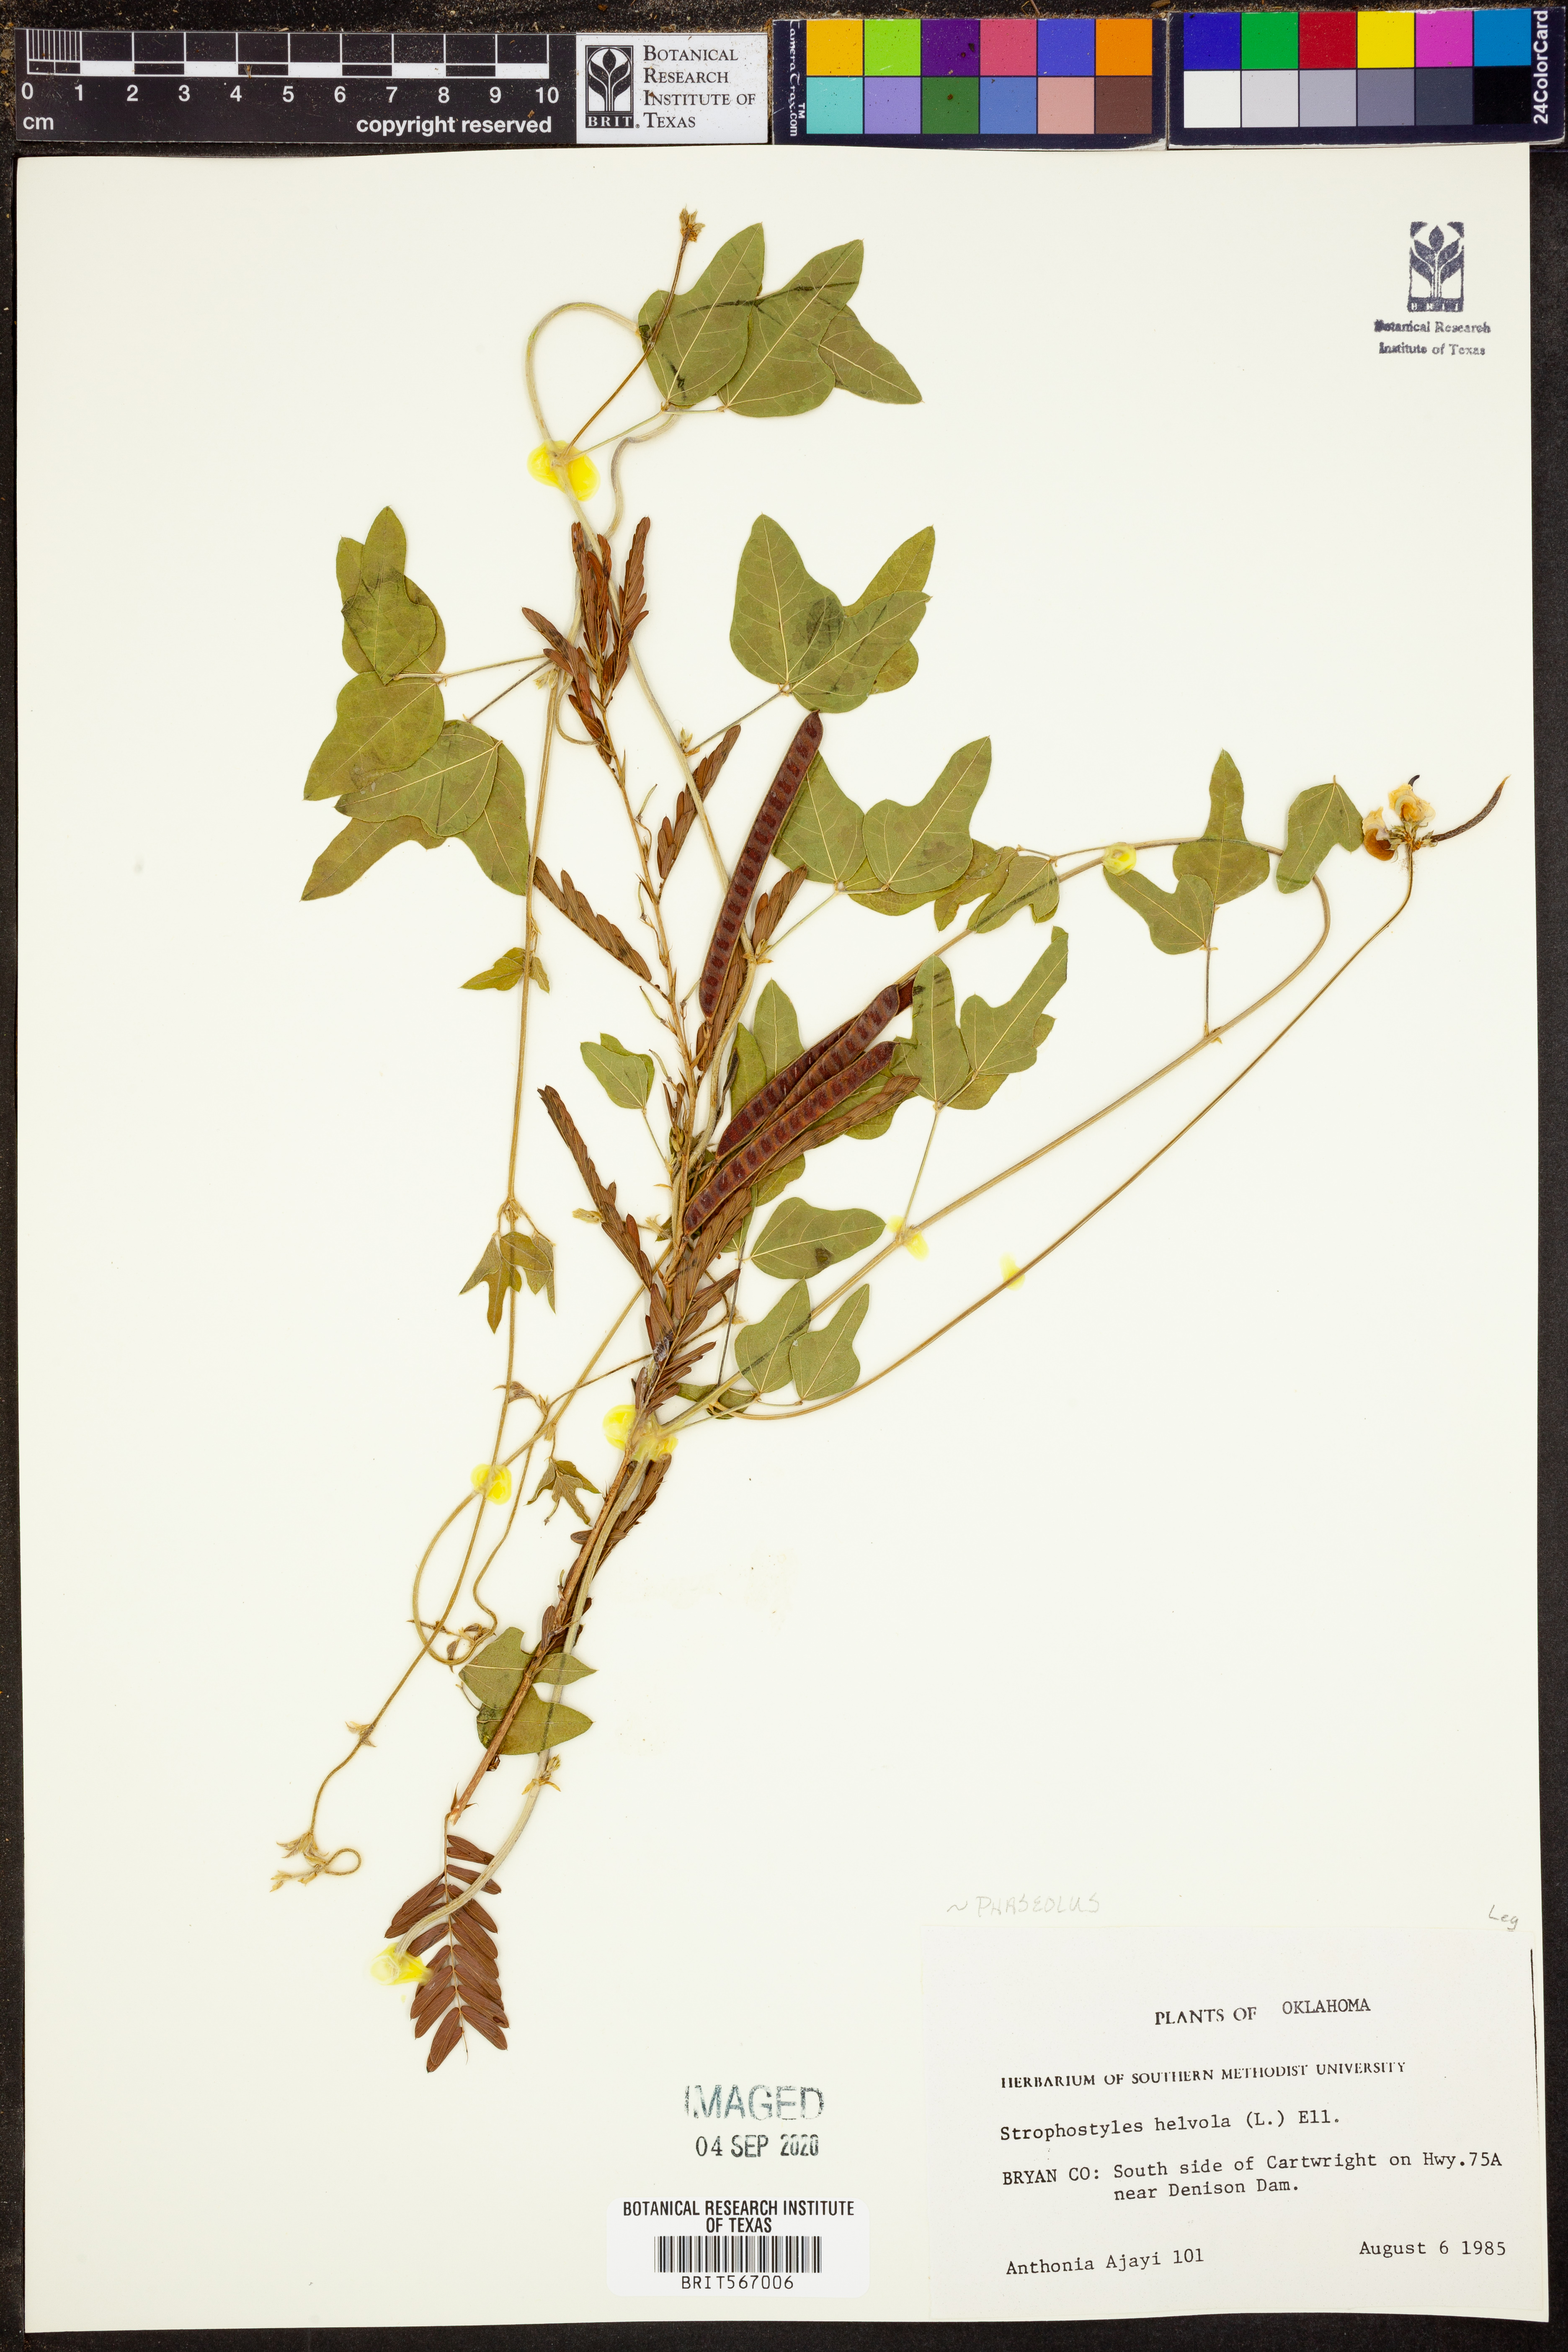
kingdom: Plantae
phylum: Tracheophyta
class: Magnoliopsida
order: Fabales
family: Fabaceae
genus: Strophostyles
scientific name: Strophostyles helvola
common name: Trailing wild bean
